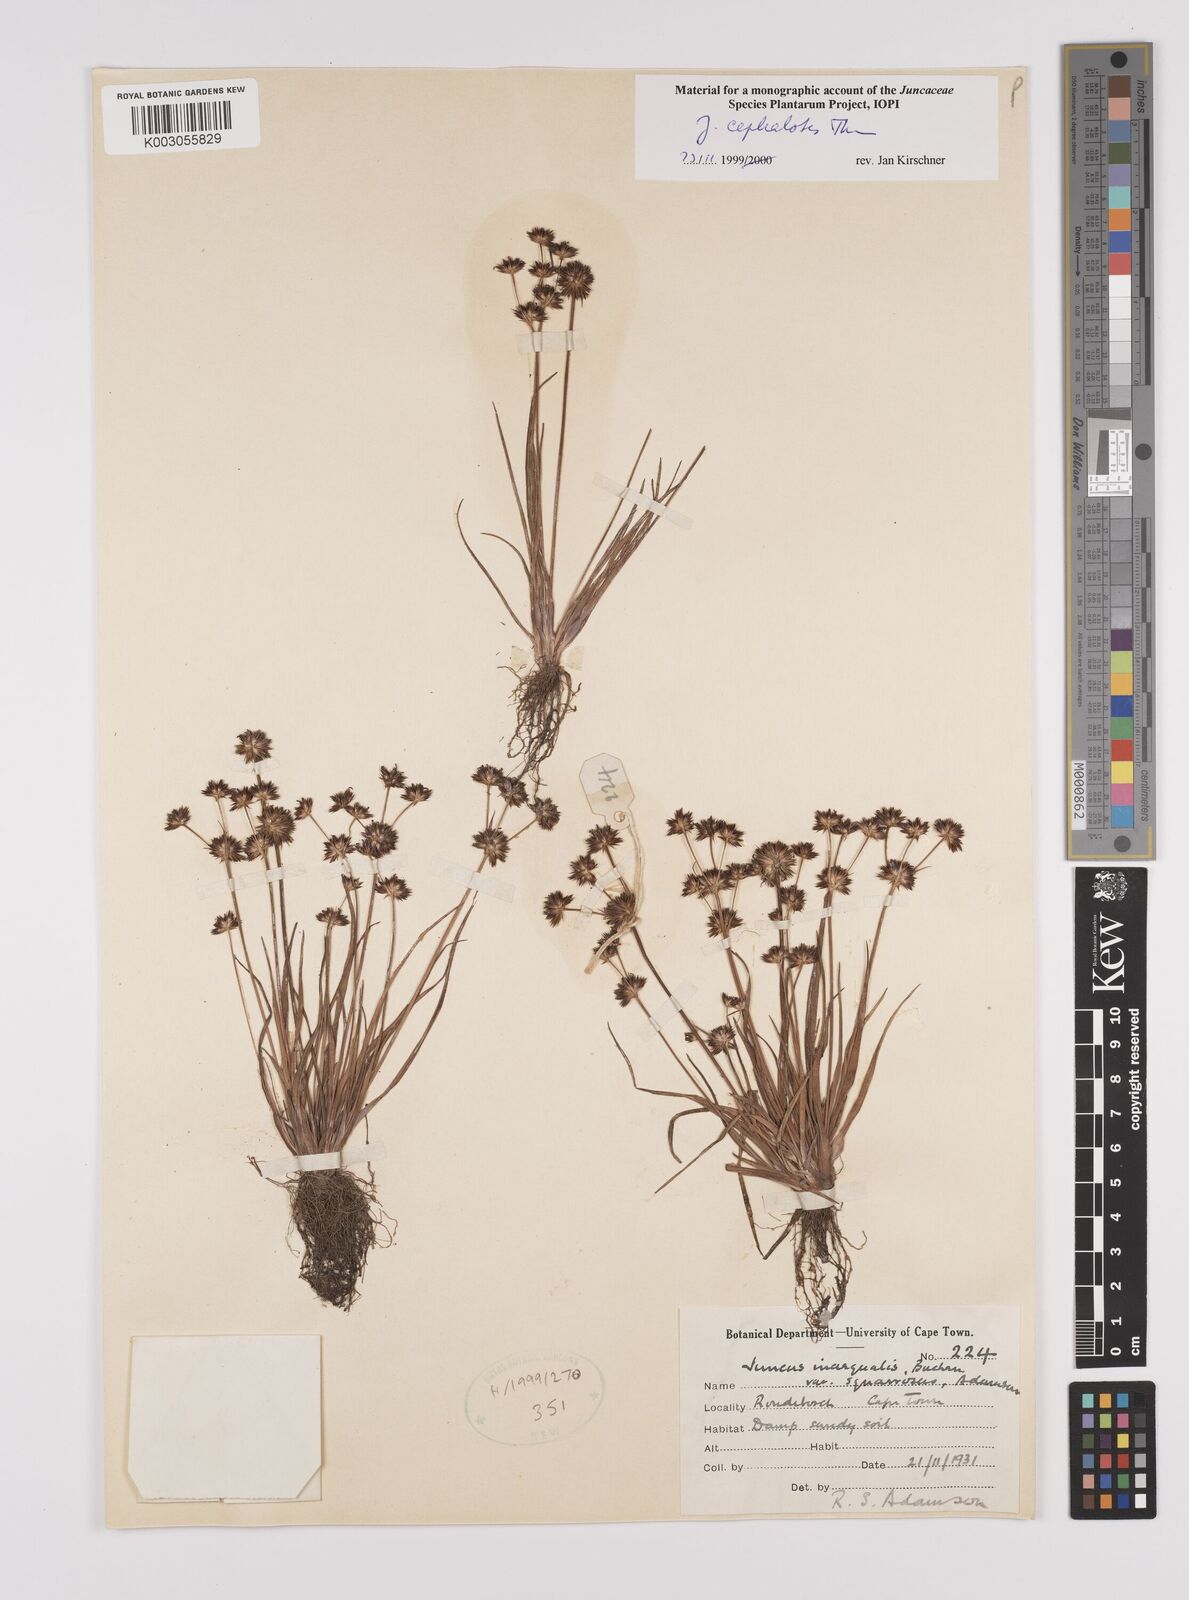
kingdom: Plantae
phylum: Tracheophyta
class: Liliopsida
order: Poales
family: Juncaceae
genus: Juncus
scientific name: Juncus cephalotes
